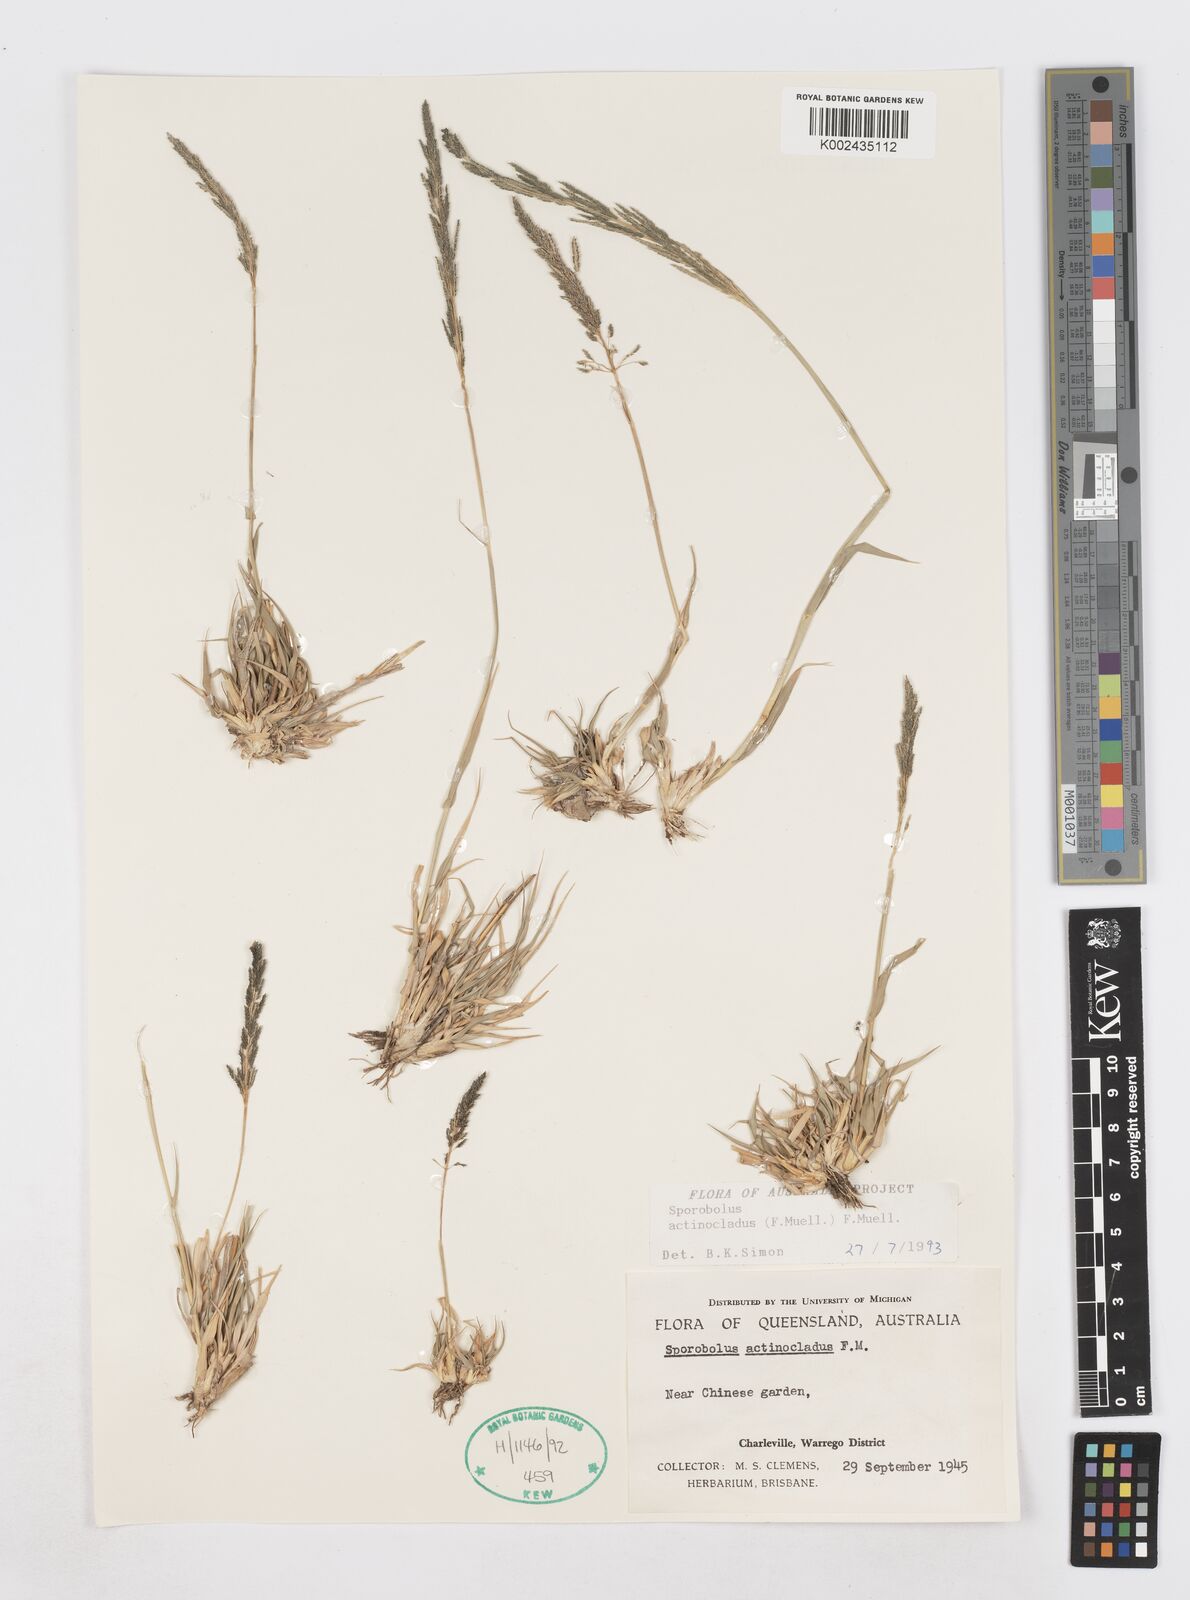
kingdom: Plantae
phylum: Tracheophyta
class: Liliopsida
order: Poales
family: Poaceae
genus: Sporobolus
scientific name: Sporobolus actinocladus
